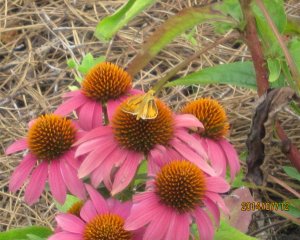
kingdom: Animalia
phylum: Arthropoda
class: Insecta
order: Lepidoptera
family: Hesperiidae
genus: Hylephila
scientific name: Hylephila phyleus
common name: Fiery Skipper
